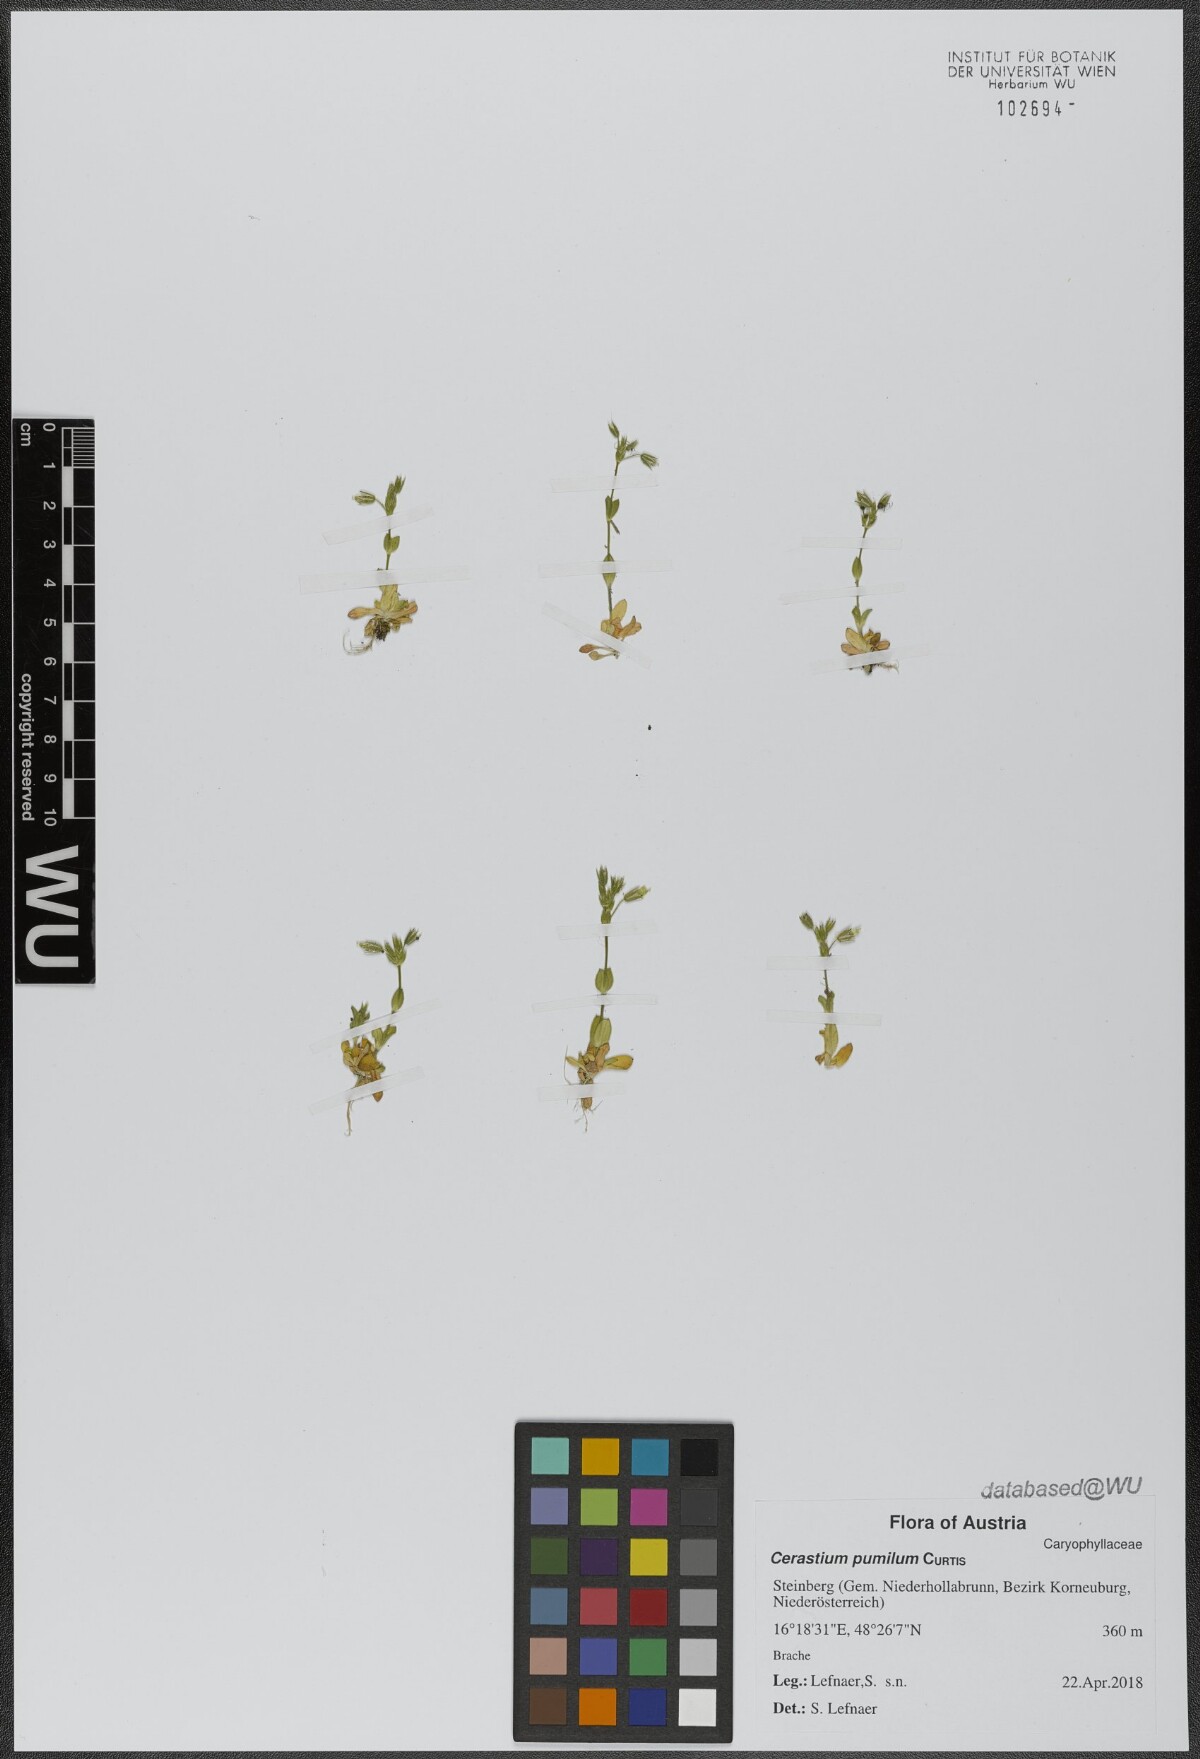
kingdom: Plantae
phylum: Tracheophyta
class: Magnoliopsida
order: Caryophyllales
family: Caryophyllaceae
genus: Cerastium
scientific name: Cerastium pumilum
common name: Dwarf mouse-ear
